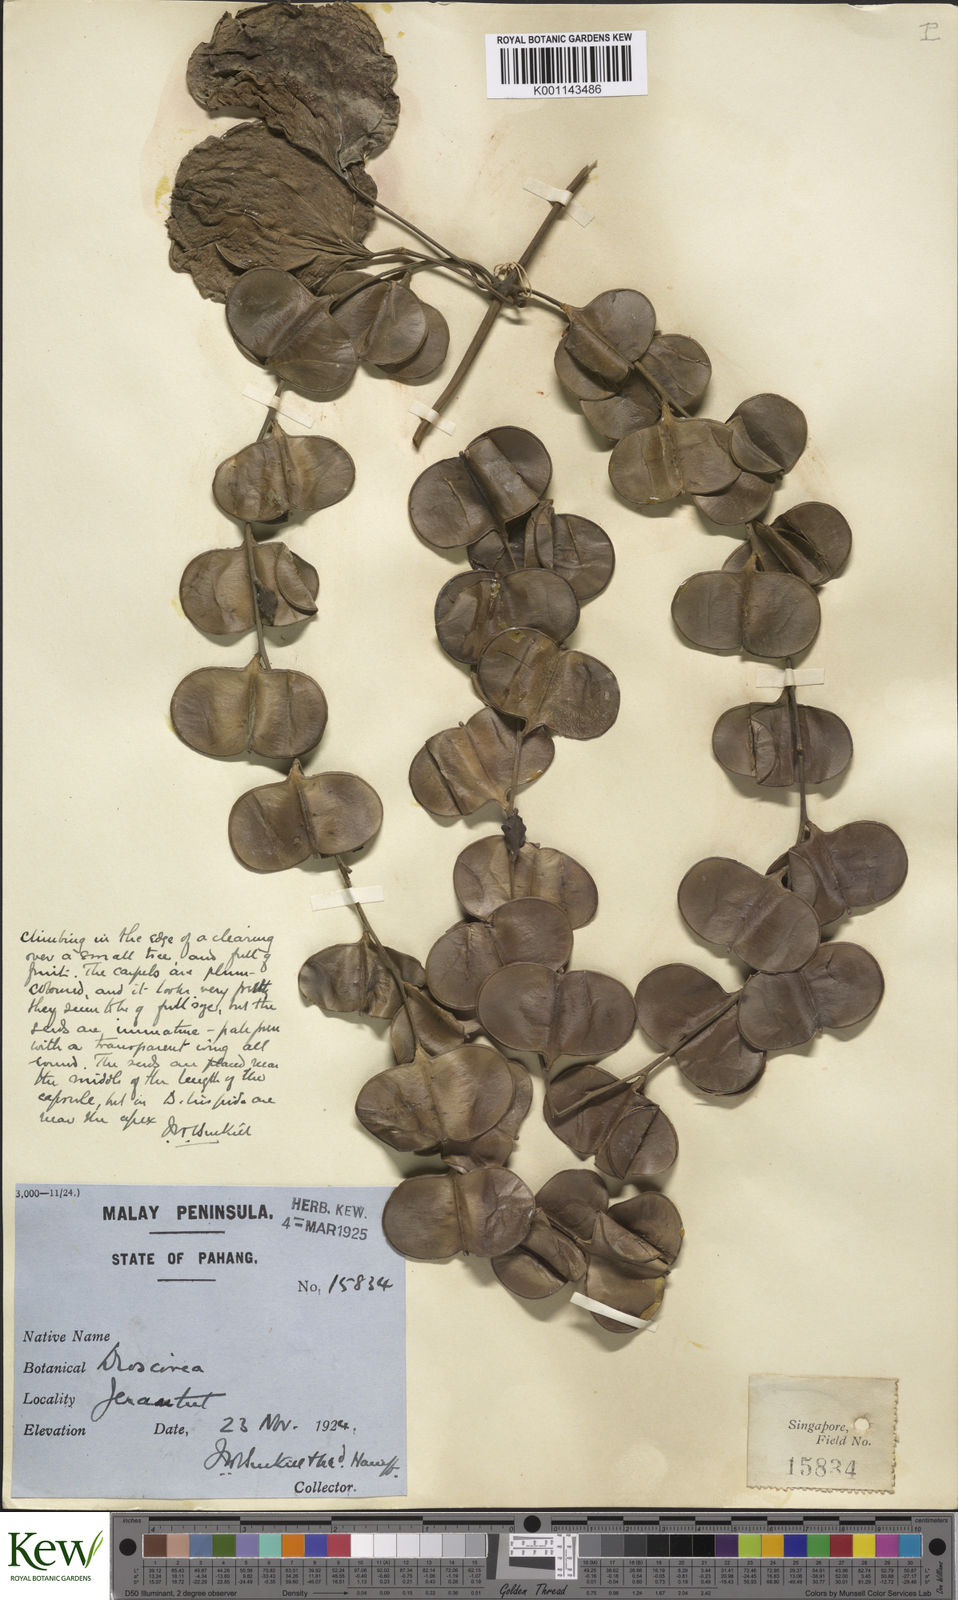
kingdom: Plantae
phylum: Tracheophyta
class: Liliopsida
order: Dioscoreales
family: Dioscoreaceae
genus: Dioscorea
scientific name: Dioscorea
